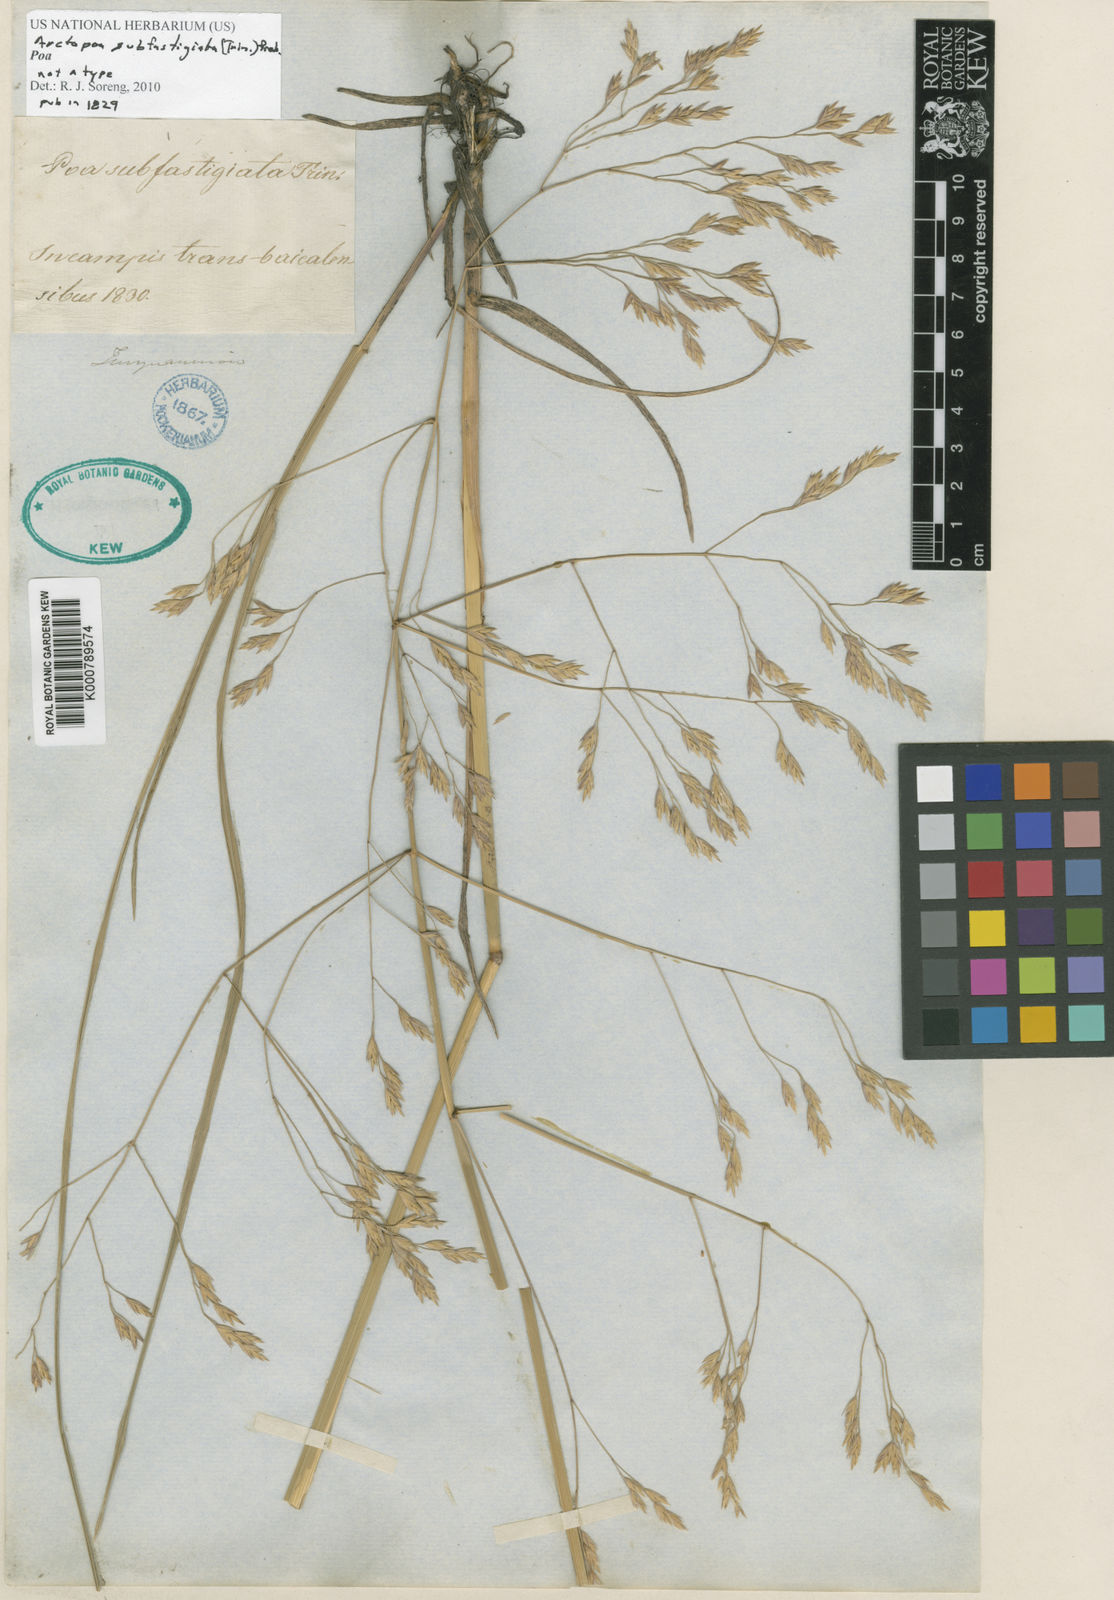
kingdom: Plantae
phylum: Tracheophyta
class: Liliopsida
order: Poales
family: Poaceae
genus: Poa
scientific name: Poa
